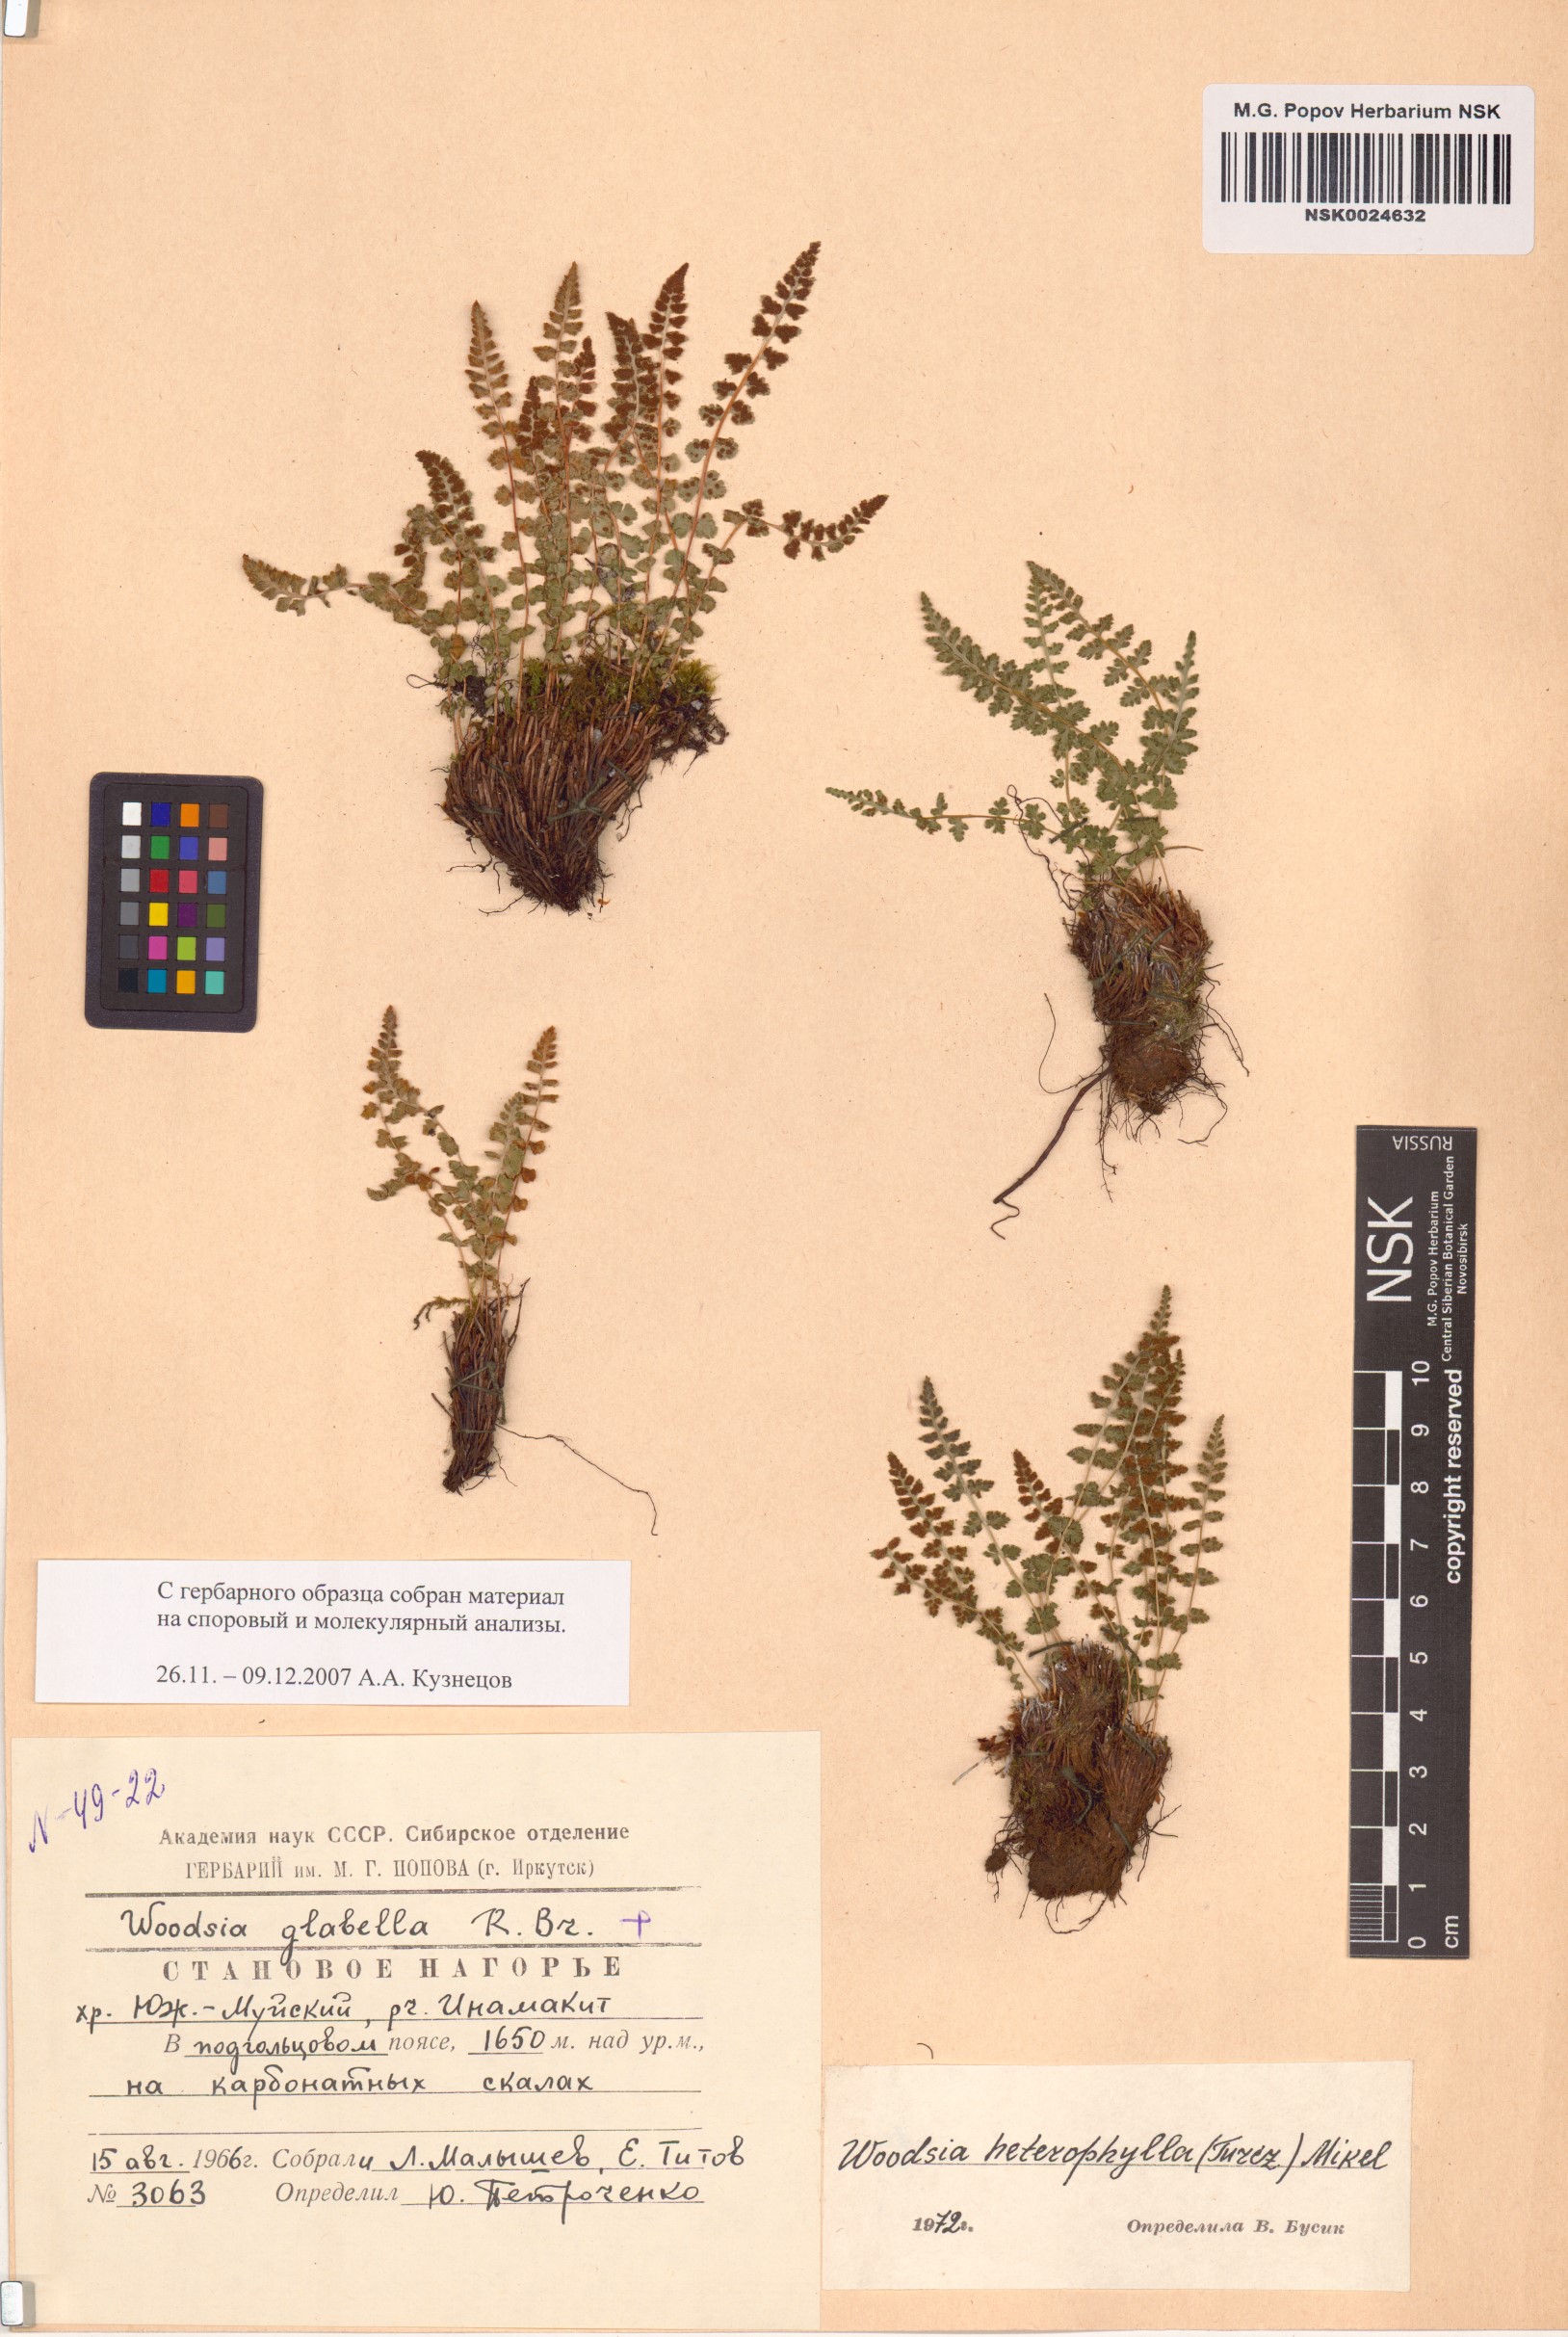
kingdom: Plantae
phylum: Tracheophyta
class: Polypodiopsida
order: Polypodiales
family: Woodsiaceae
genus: Woodsia
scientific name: Woodsia pulchella
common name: Graceful woodsia
